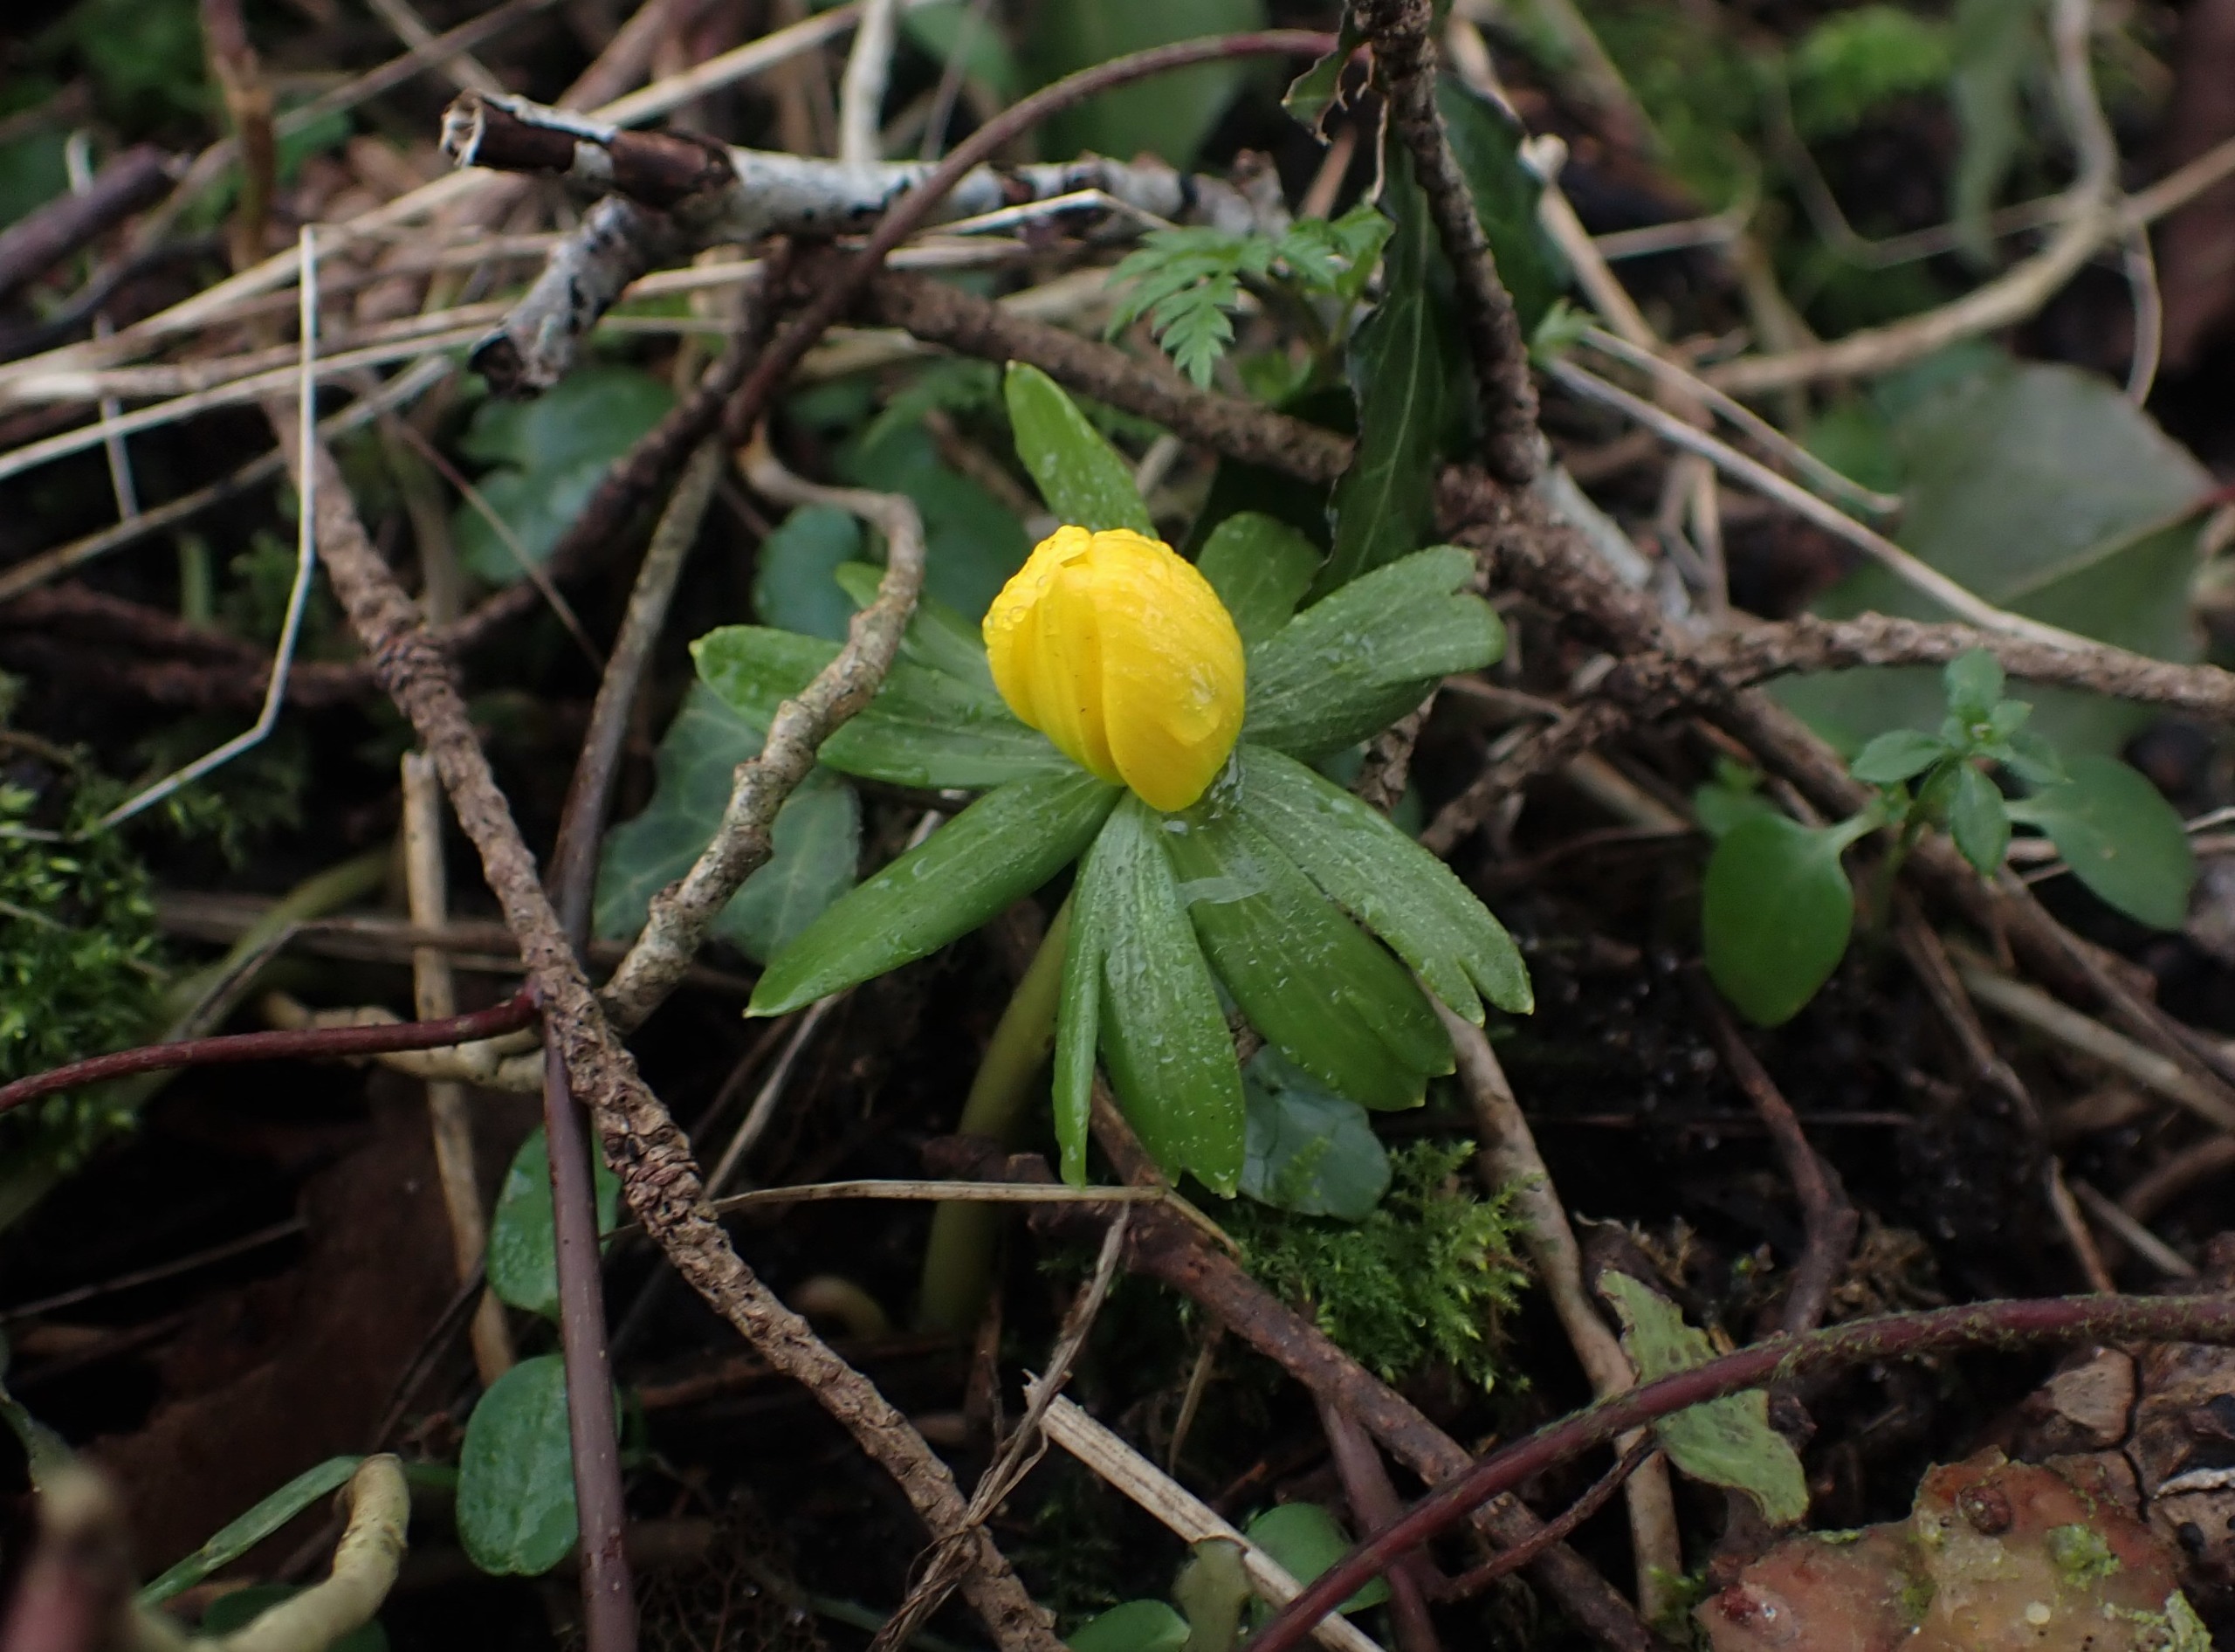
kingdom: Plantae
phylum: Tracheophyta
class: Magnoliopsida
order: Ranunculales
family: Ranunculaceae
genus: Eranthis
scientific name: Eranthis hyemalis
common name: Erantis
